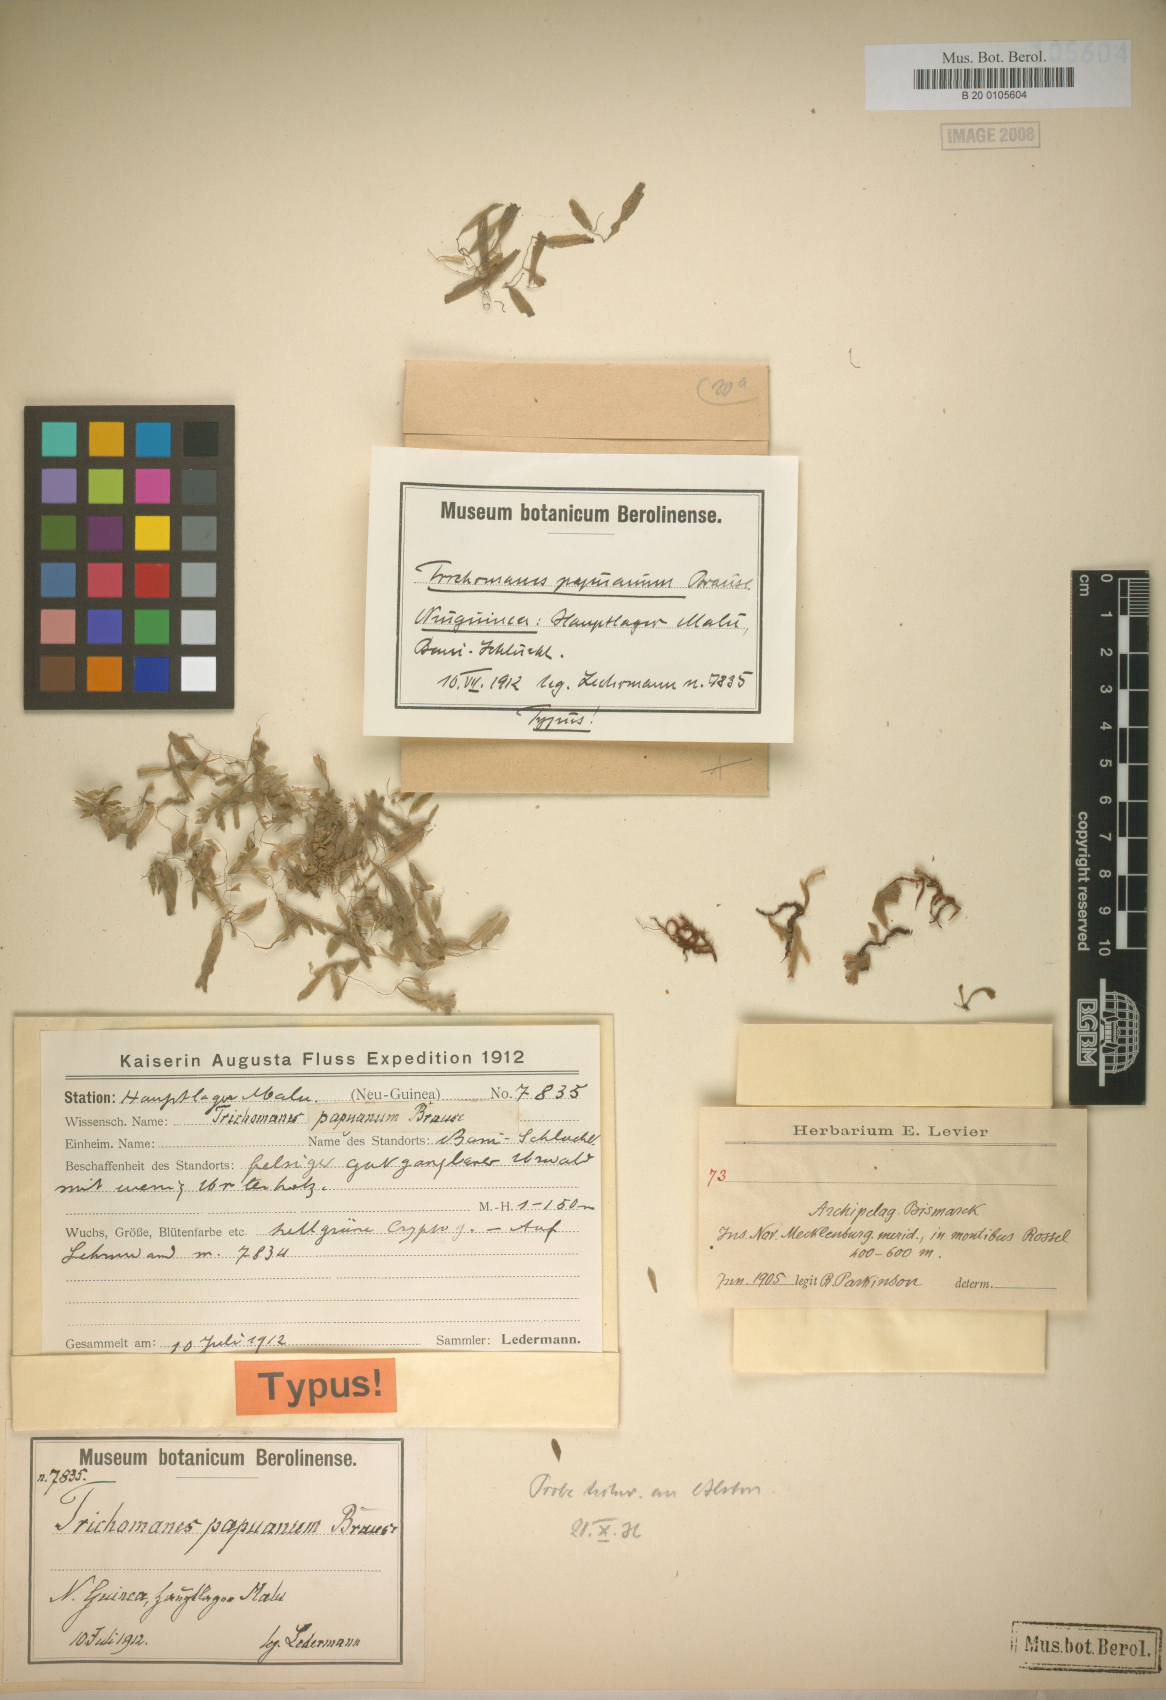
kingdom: Plantae
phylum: Tracheophyta
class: Polypodiopsida
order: Hymenophyllales
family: Hymenophyllaceae
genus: Didymoglossum
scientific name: Didymoglossum mindorense
